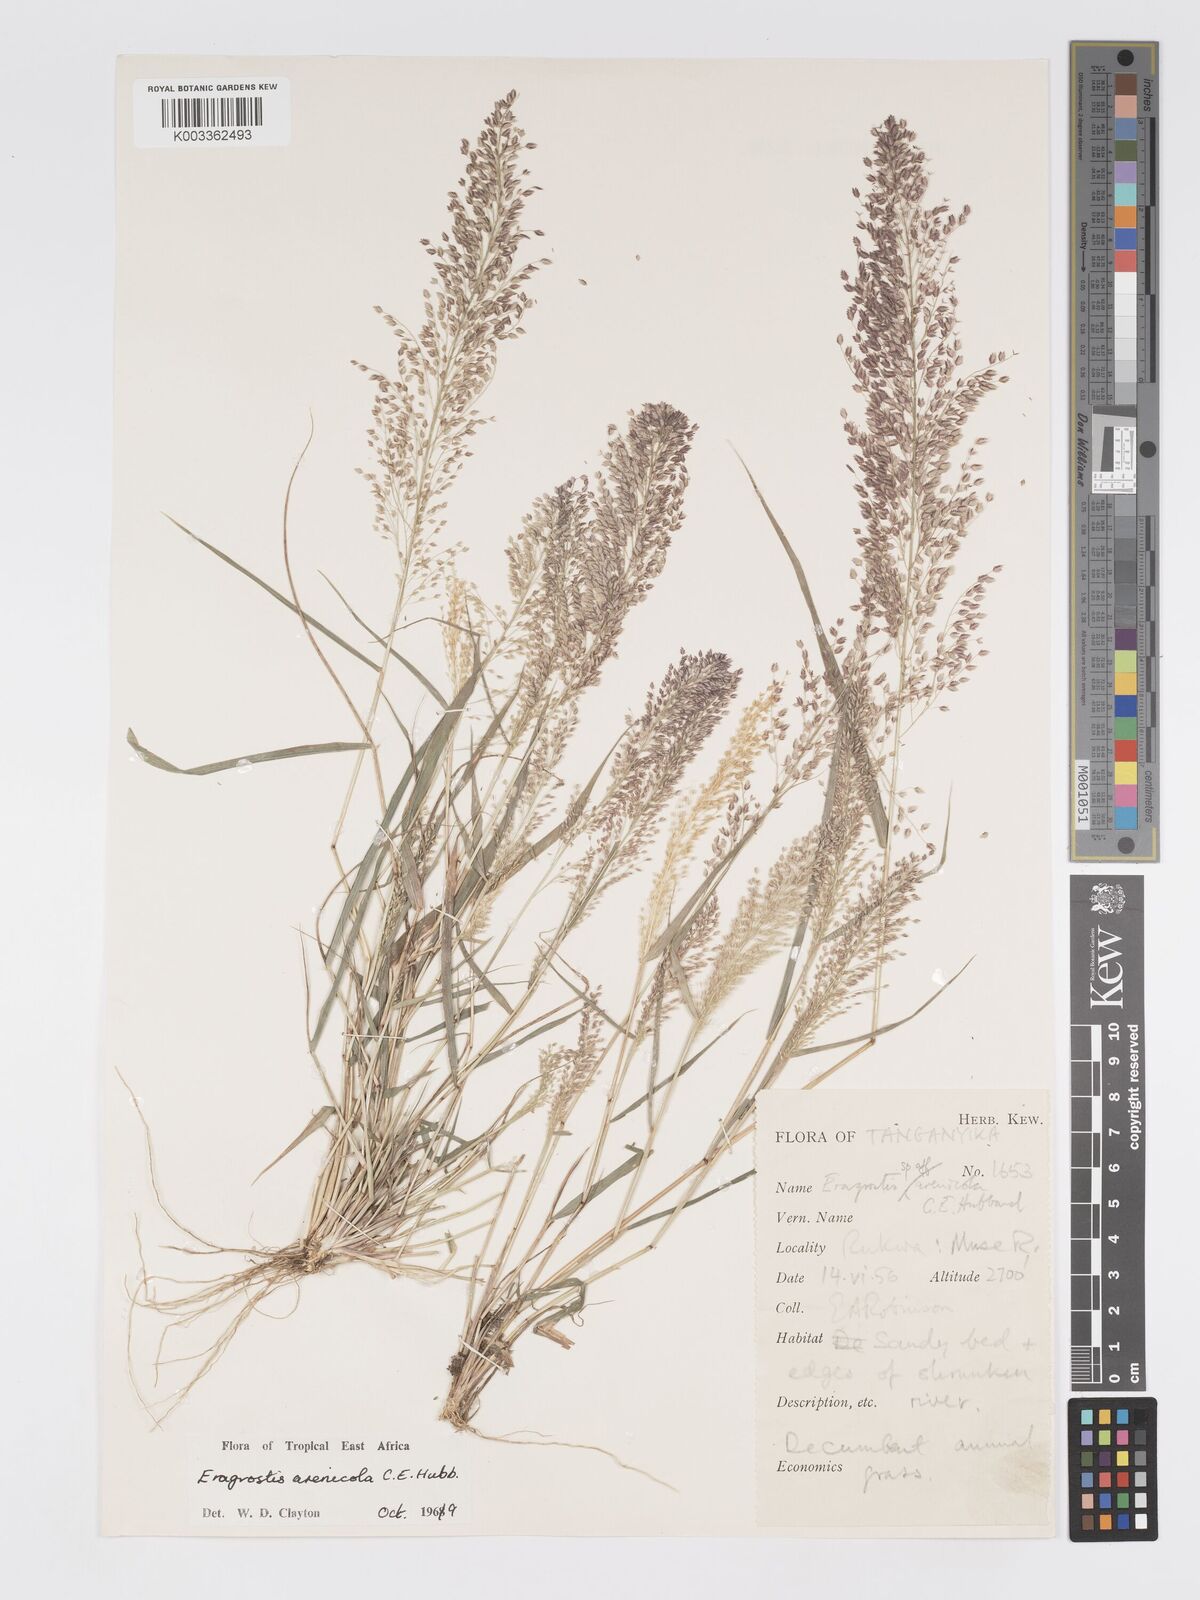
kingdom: Plantae
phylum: Tracheophyta
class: Liliopsida
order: Poales
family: Poaceae
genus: Eragrostis
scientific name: Eragrostis arenicola
